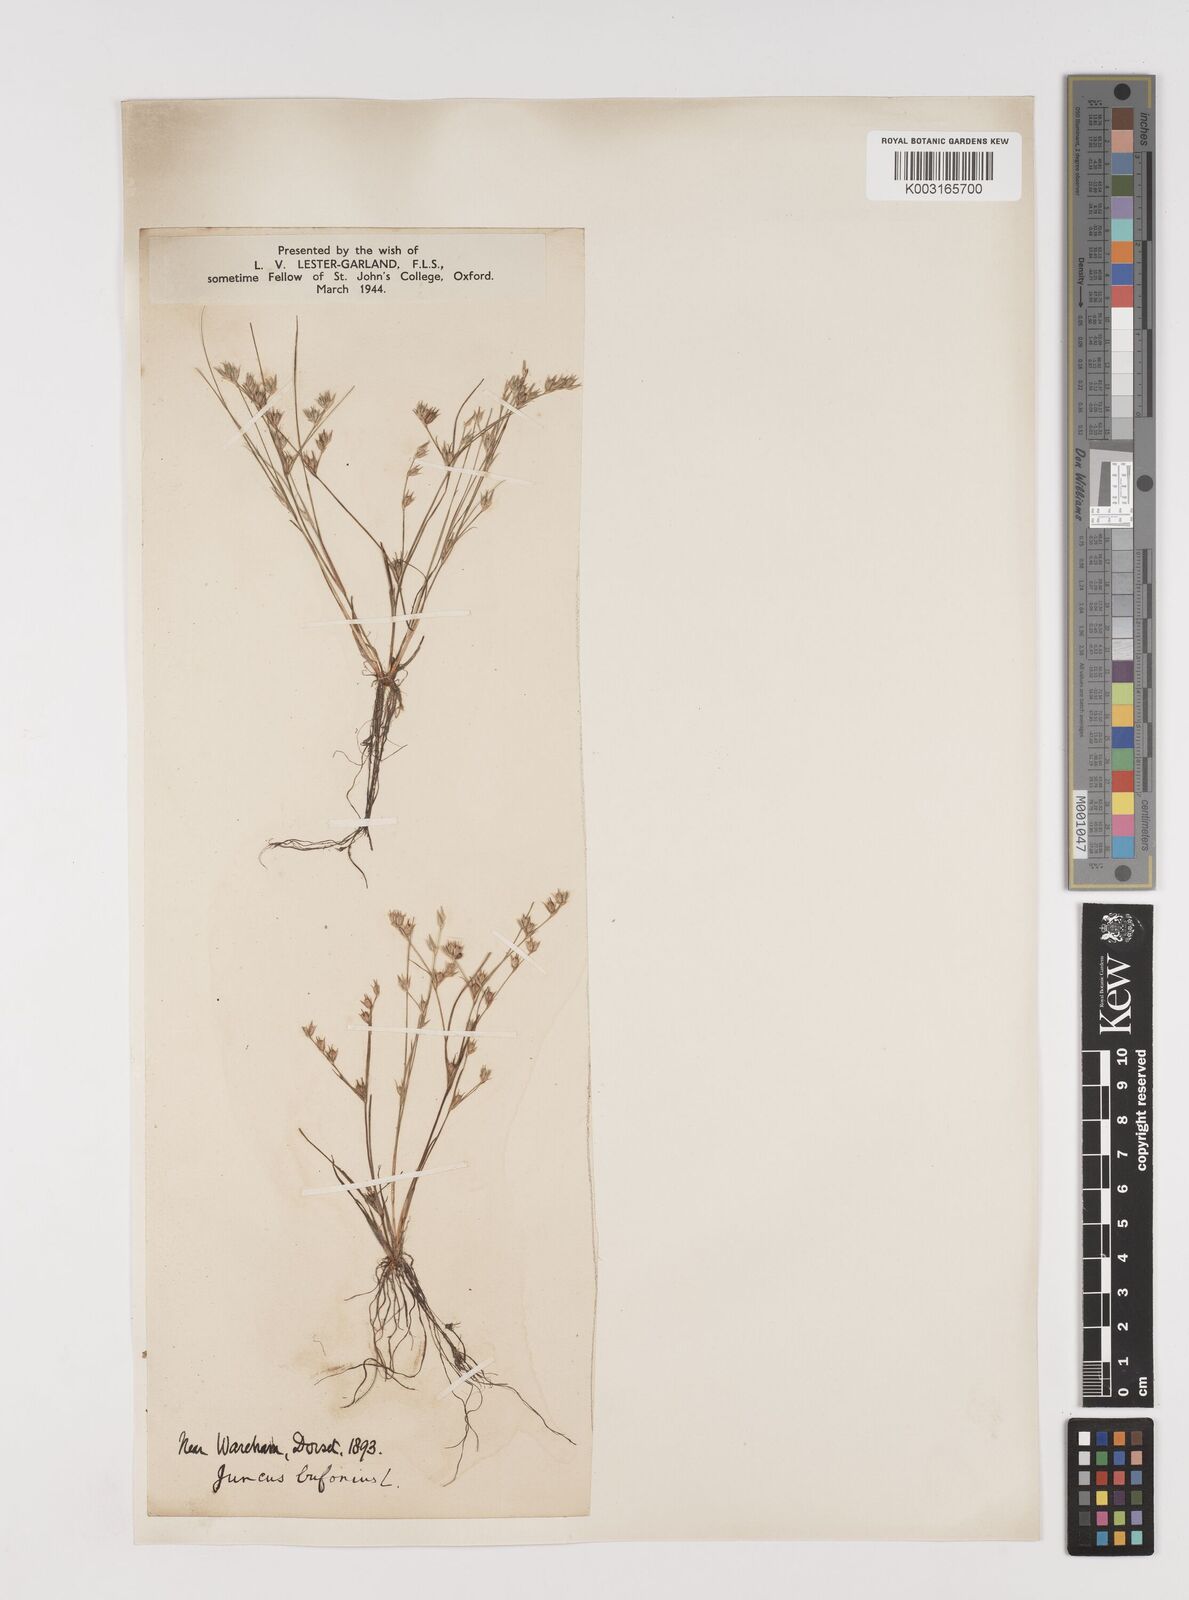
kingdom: Plantae
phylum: Tracheophyta
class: Liliopsida
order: Poales
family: Juncaceae
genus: Juncus
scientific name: Juncus bufonius
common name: Toad rush
